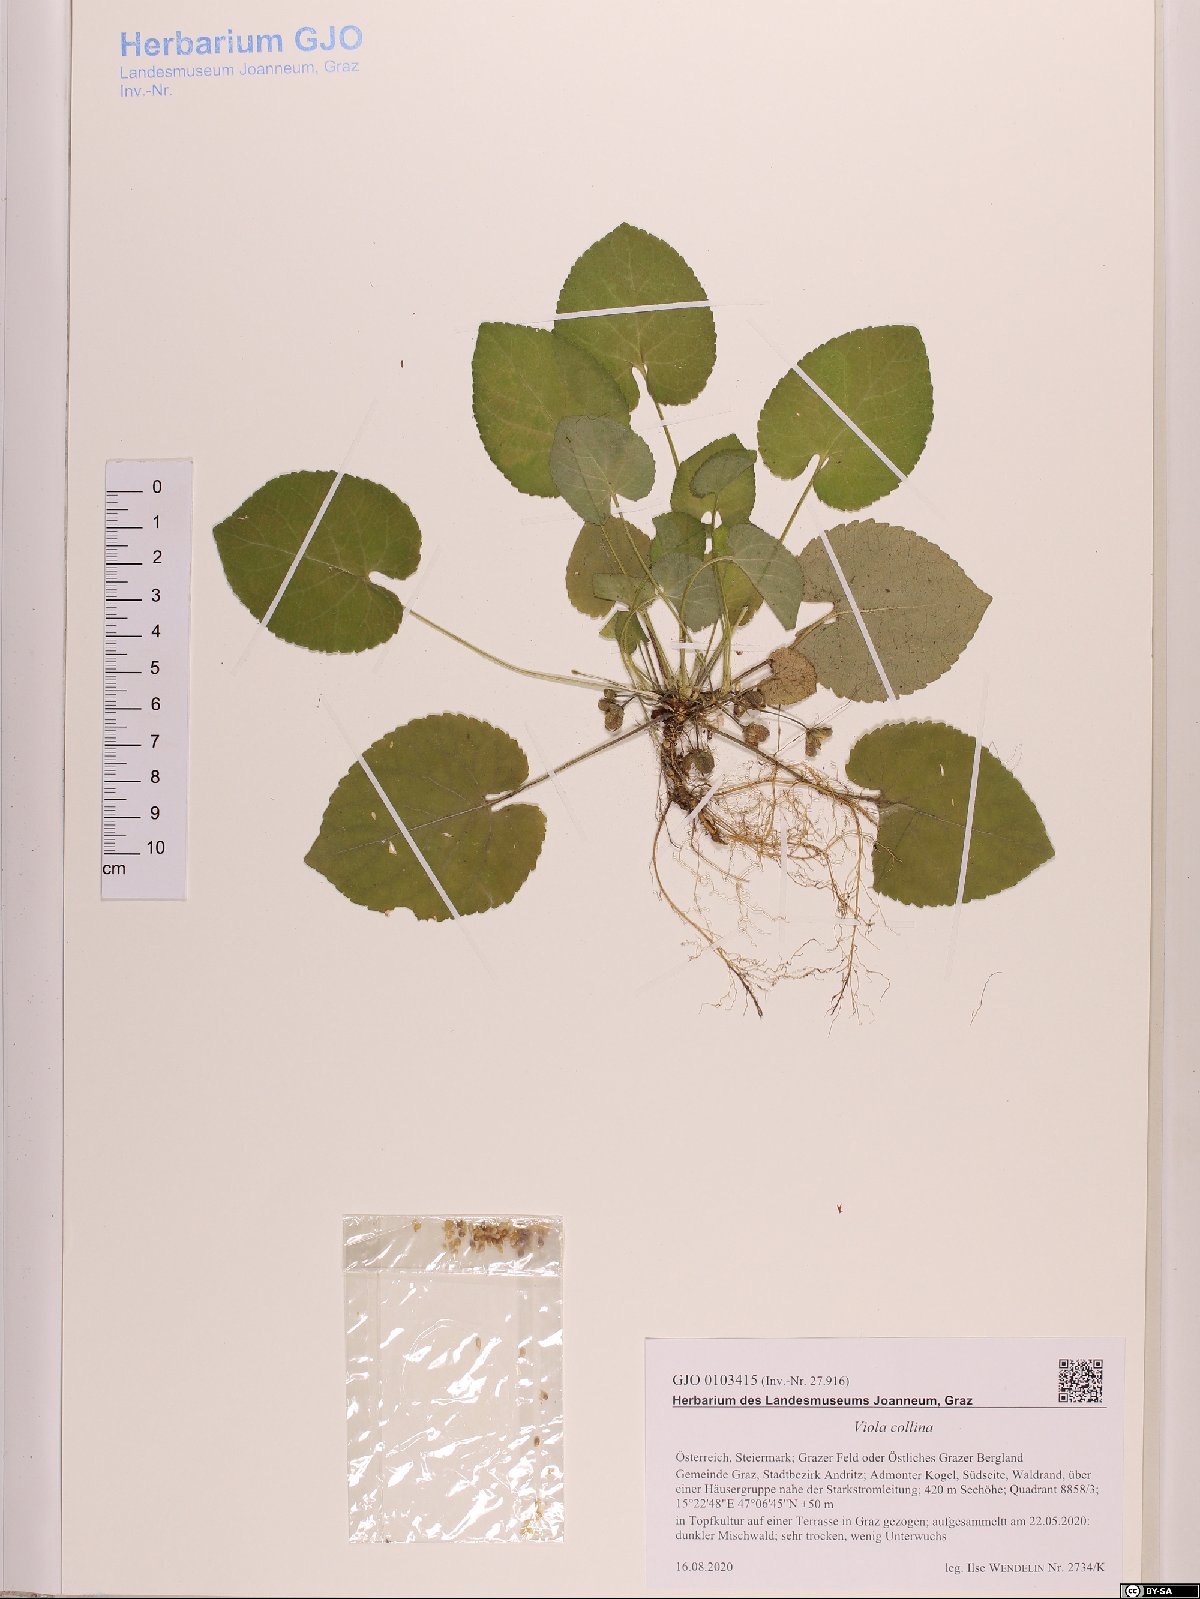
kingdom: Plantae
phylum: Tracheophyta
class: Magnoliopsida
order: Malpighiales
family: Violaceae
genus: Viola
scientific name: Viola collina
